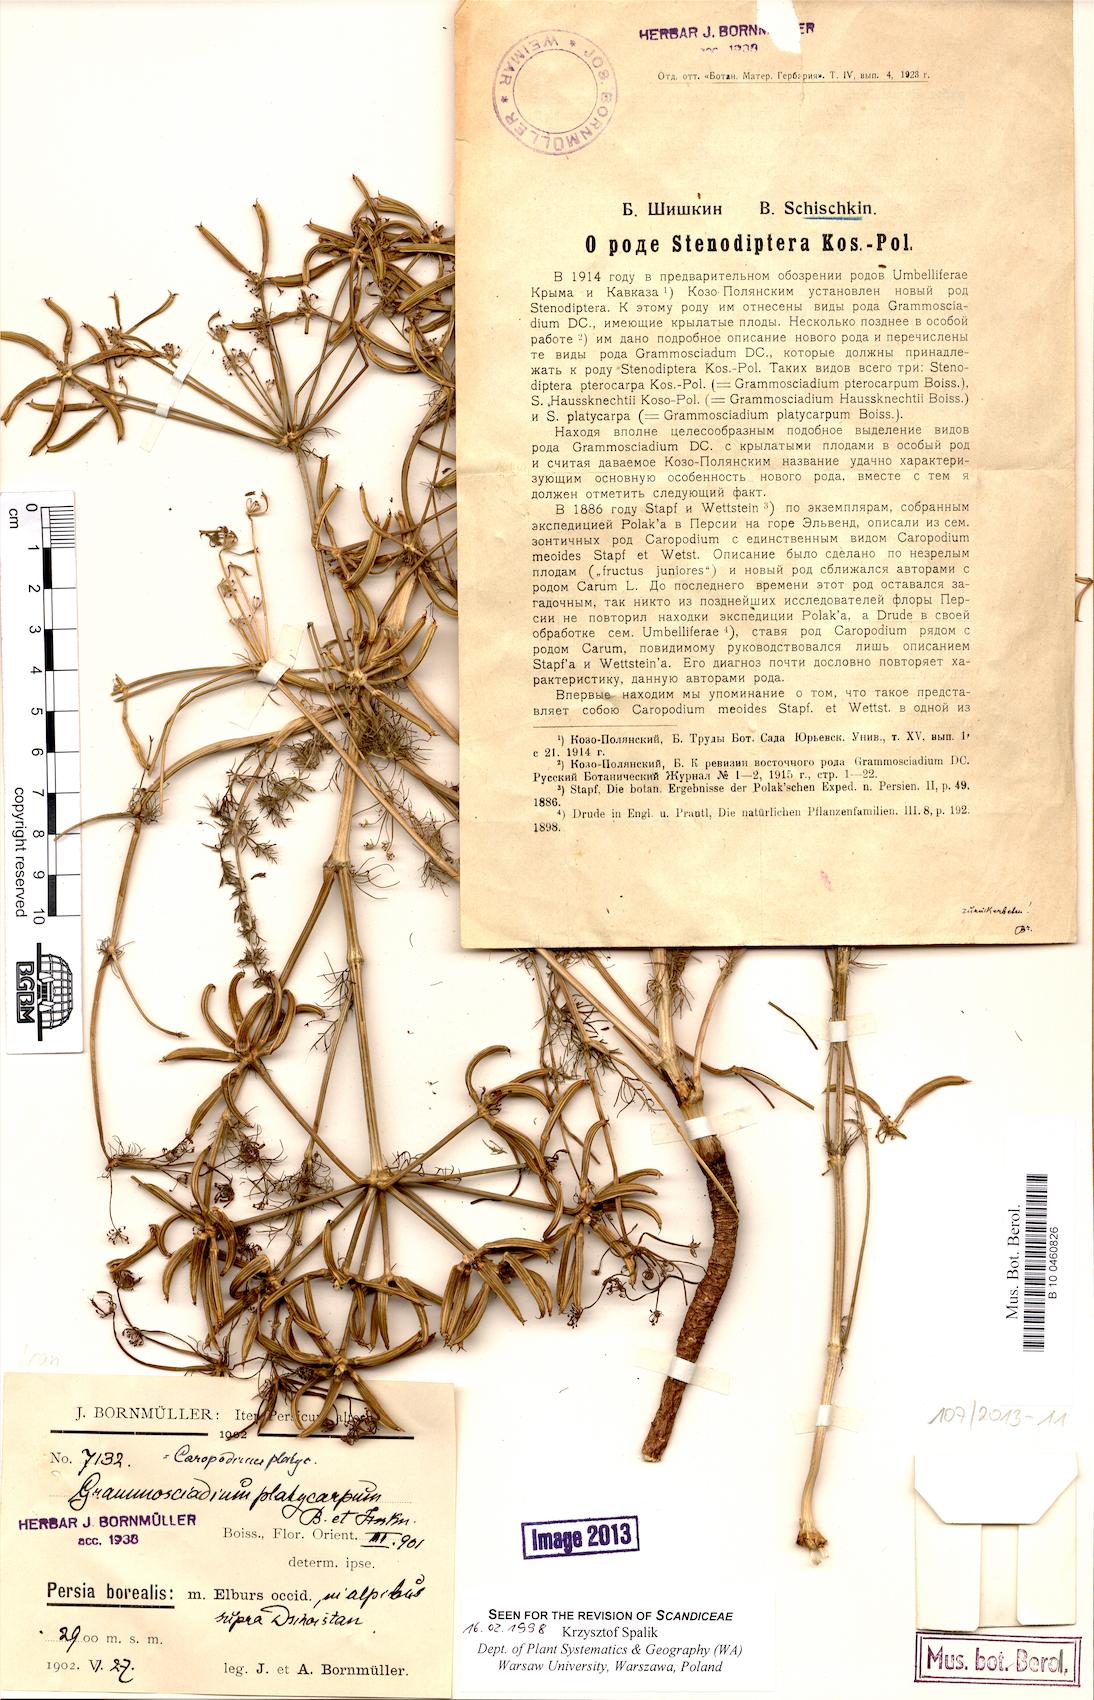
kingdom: Plantae
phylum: Tracheophyta
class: Magnoliopsida
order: Apiales
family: Apiaceae
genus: Caropodium
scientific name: Caropodium platycarpum
